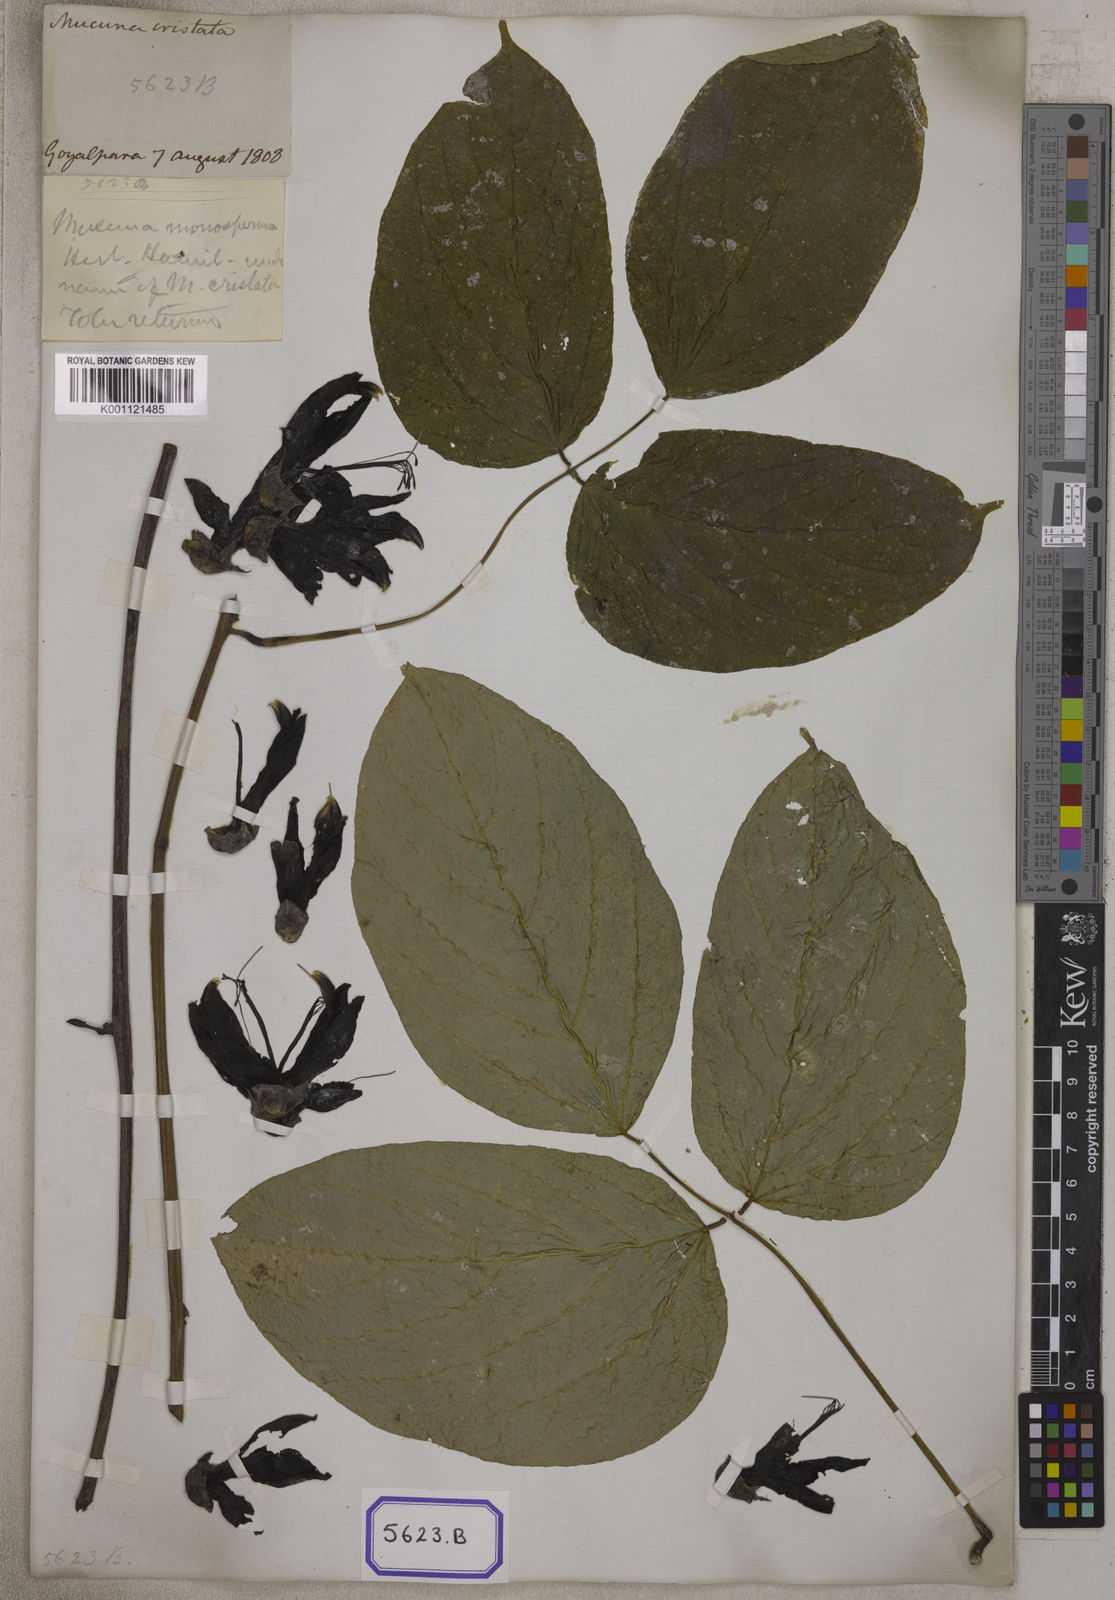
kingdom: Plantae
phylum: Tracheophyta
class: Magnoliopsida
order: Fabales
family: Fabaceae
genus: Mucuna
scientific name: Mucuna
